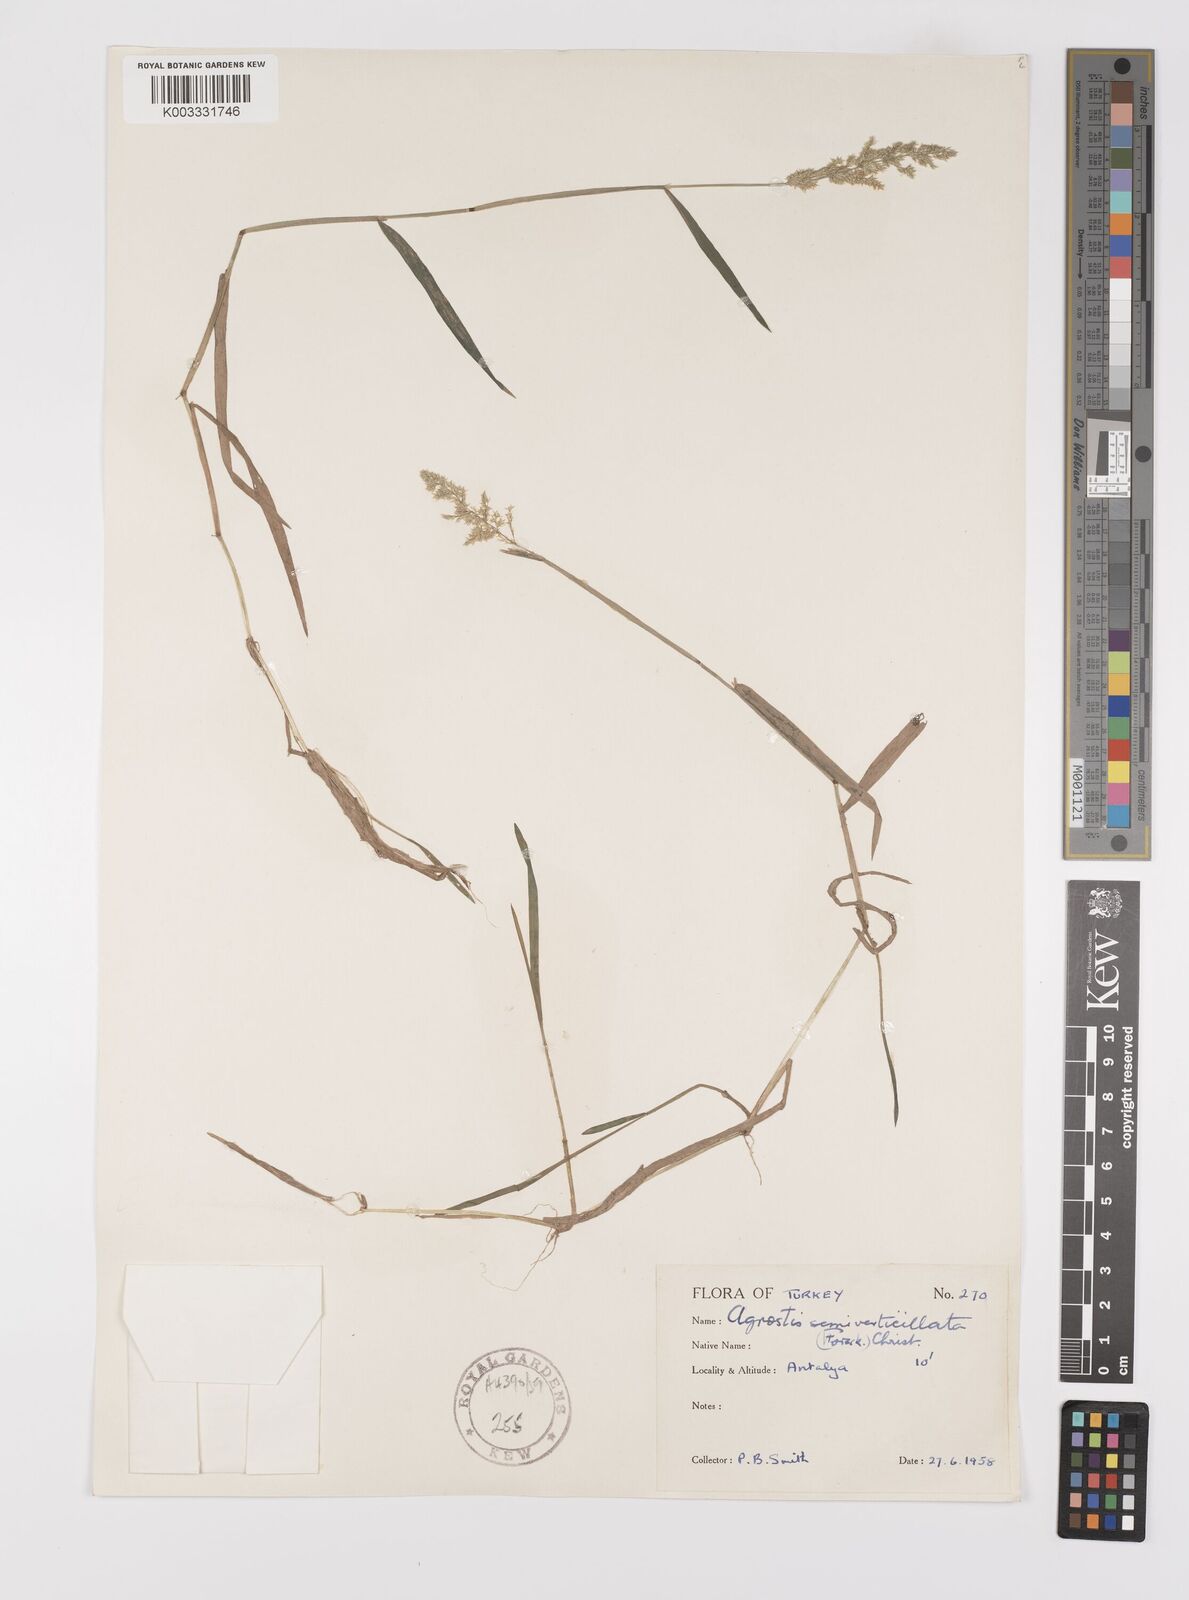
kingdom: Plantae
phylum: Tracheophyta
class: Liliopsida
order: Poales
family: Poaceae
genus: Polypogon
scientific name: Polypogon viridis
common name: Water bent
